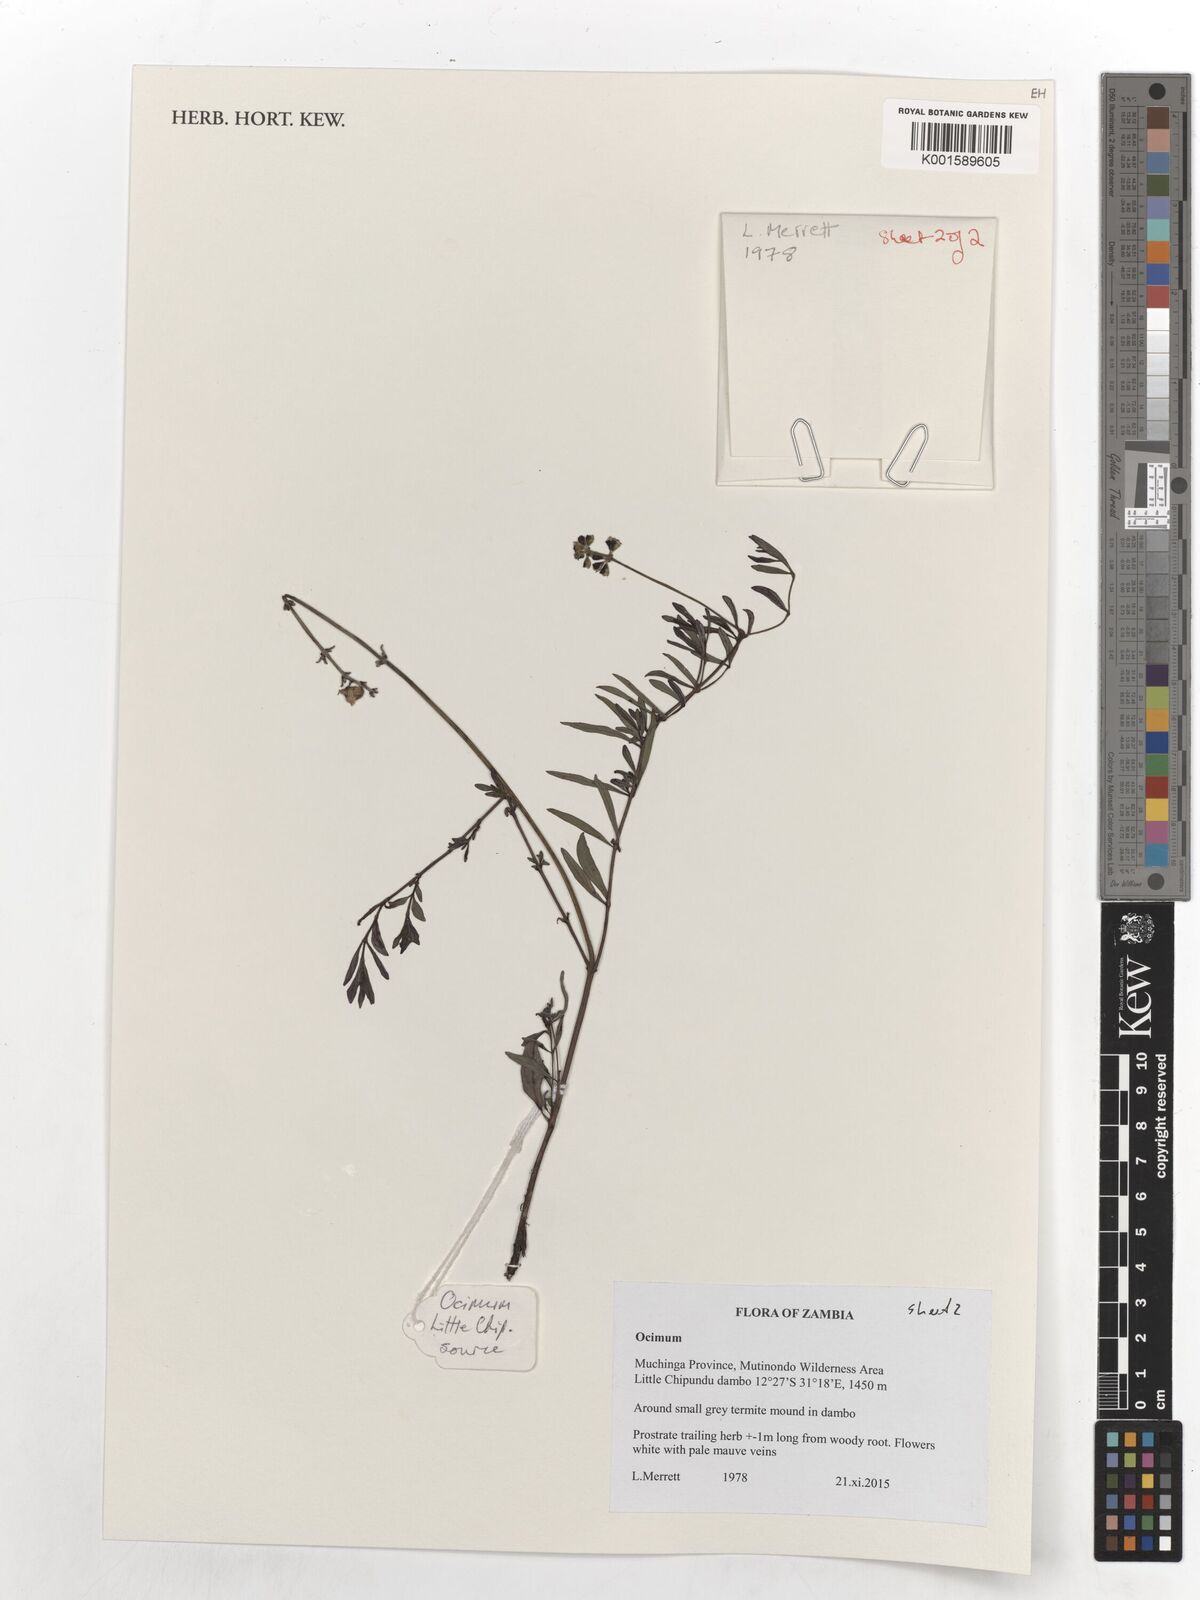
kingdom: Plantae
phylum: Tracheophyta
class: Magnoliopsida
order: Lamiales
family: Lamiaceae
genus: Ocimum
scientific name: Ocimum decumbens
